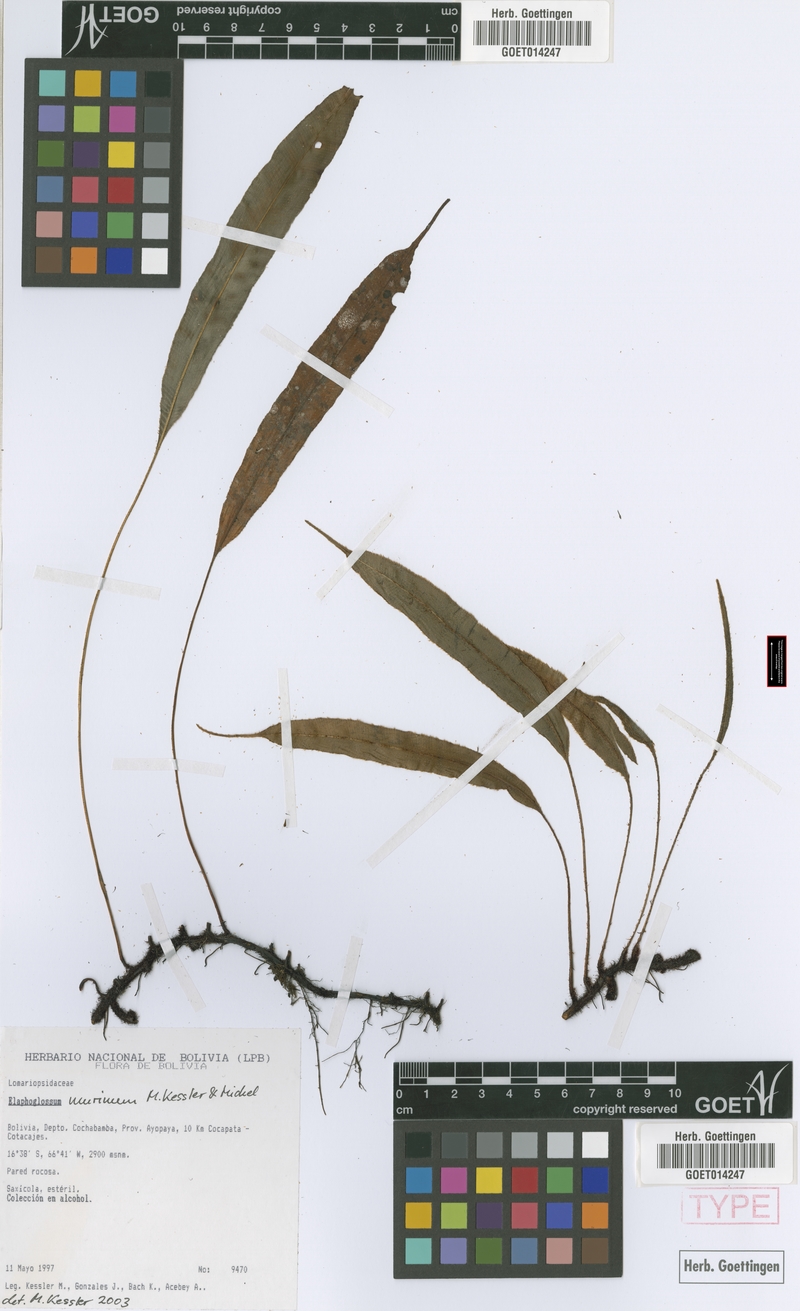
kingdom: Plantae
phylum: Tracheophyta
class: Polypodiopsida
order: Polypodiales
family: Dryopteridaceae
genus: Elaphoglossum
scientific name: Elaphoglossum murinum
